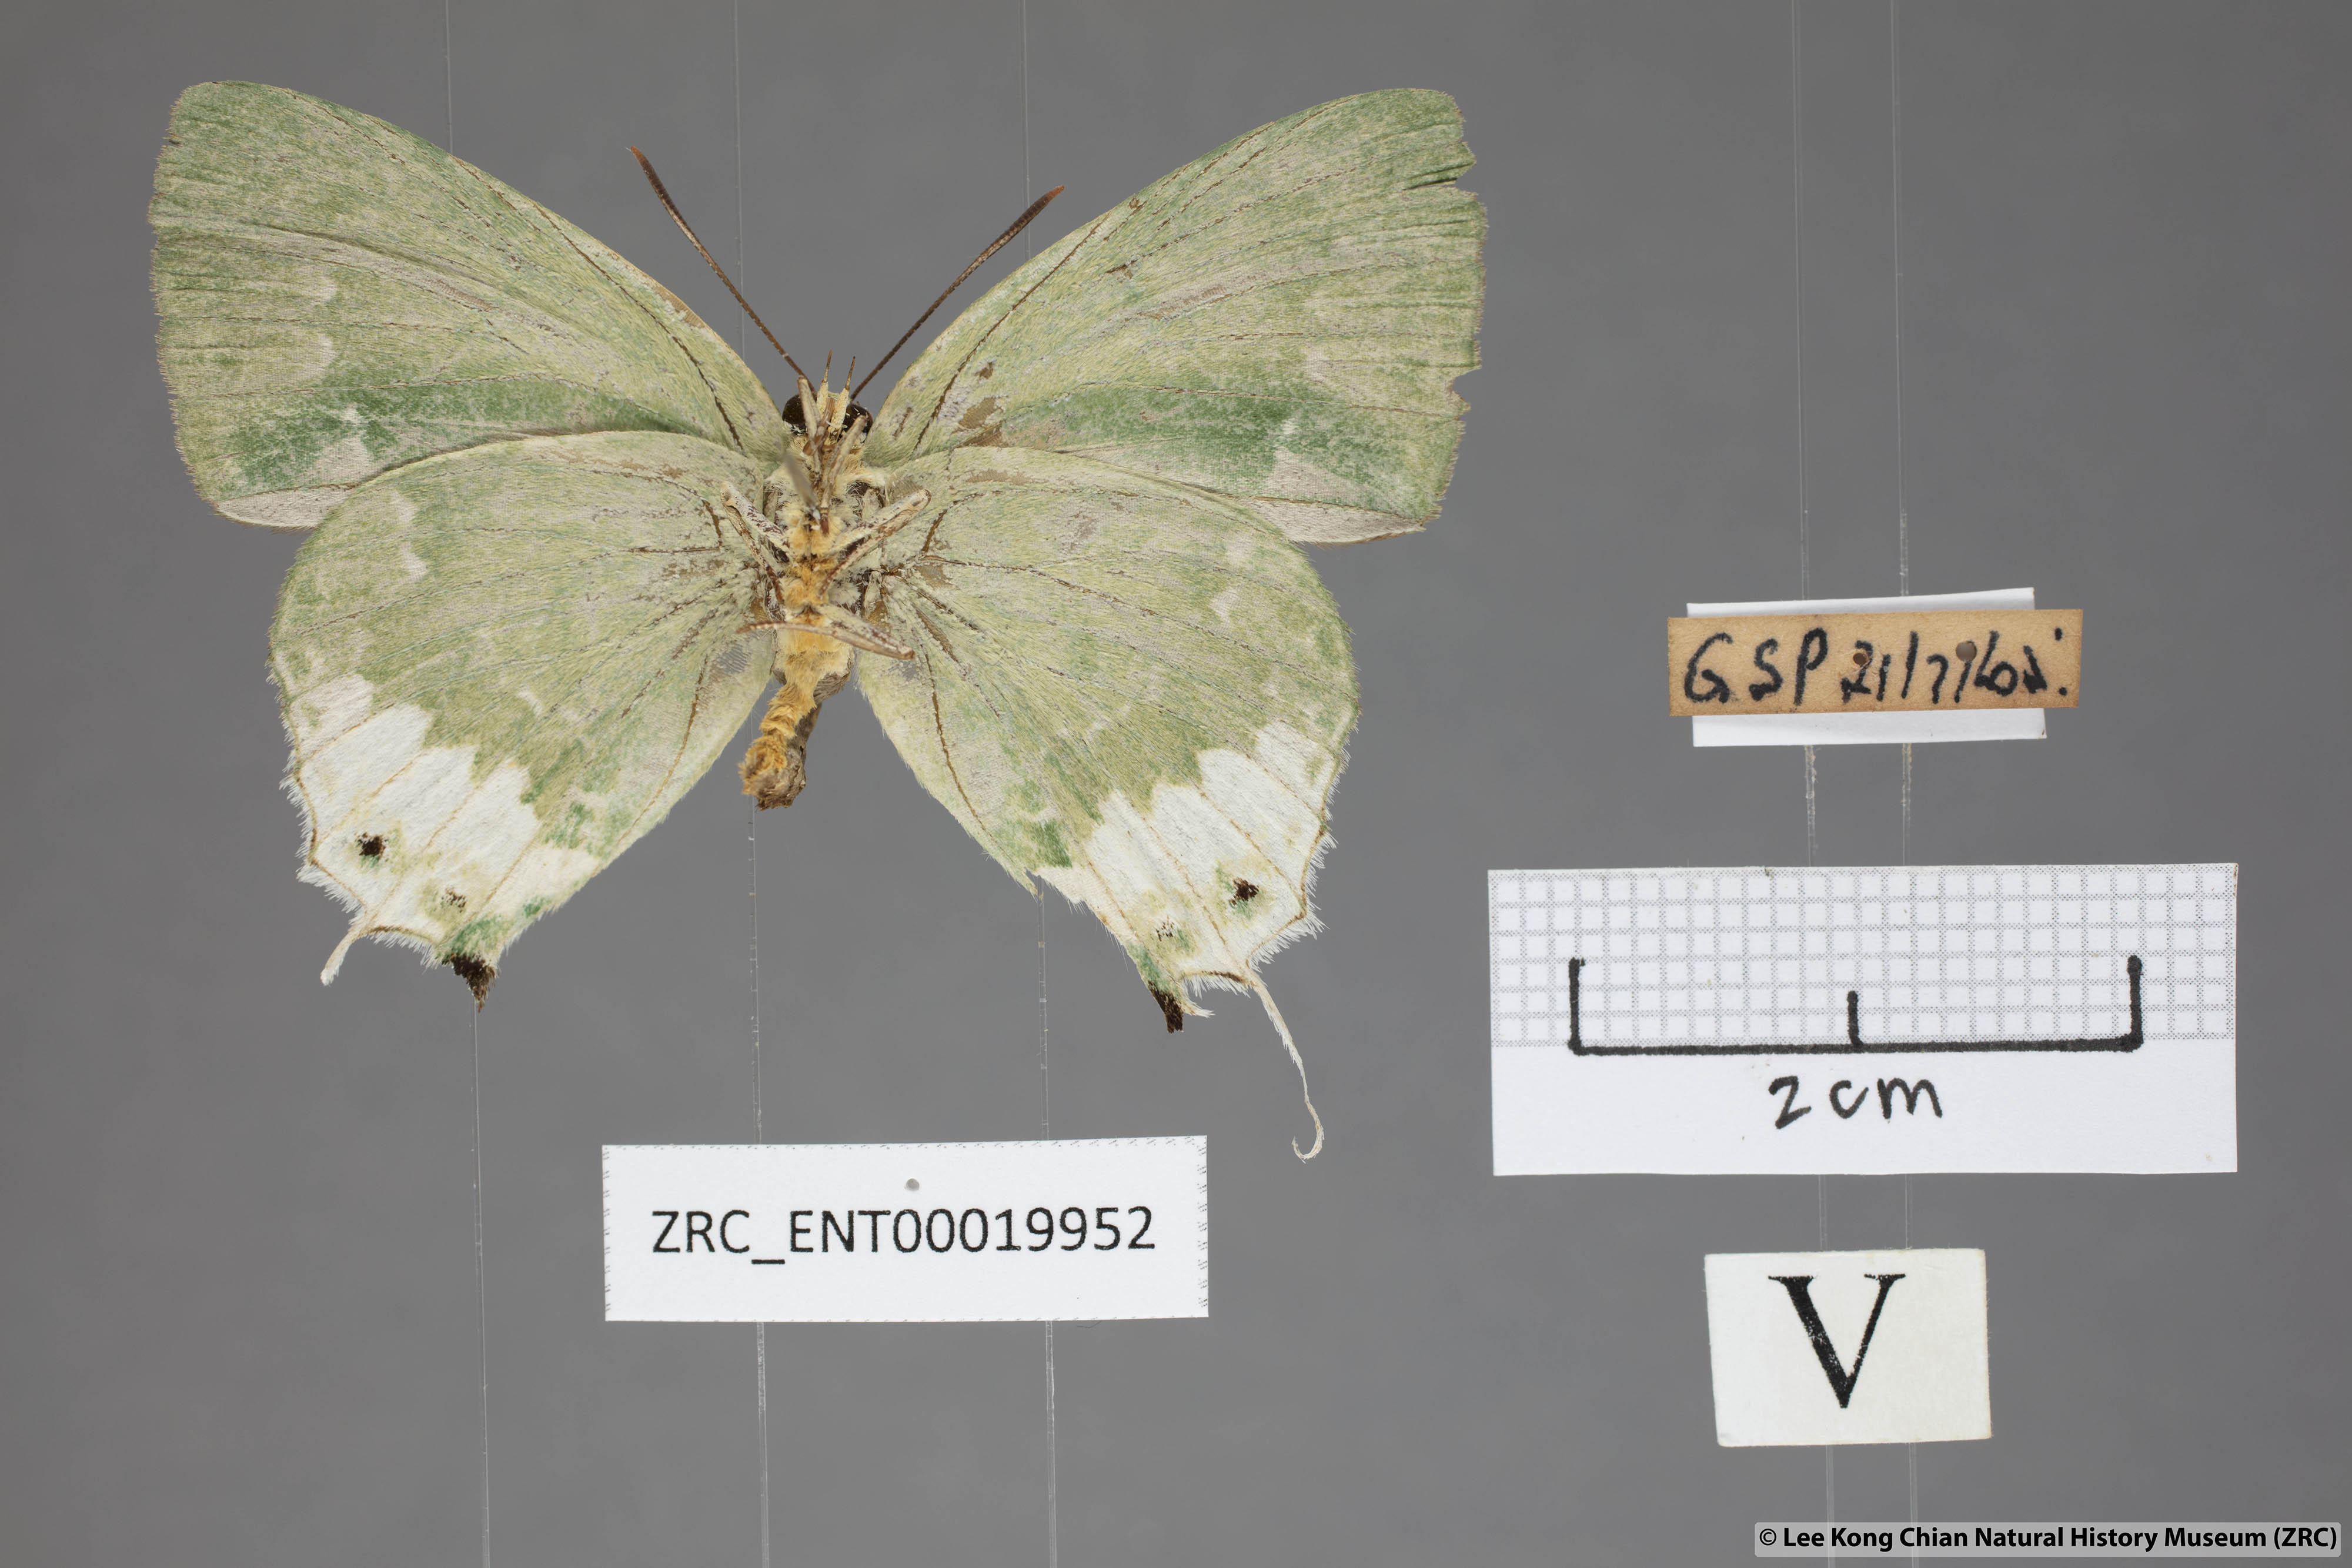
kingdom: Animalia
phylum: Arthropoda
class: Insecta
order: Lepidoptera
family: Lycaenidae
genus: Artipe
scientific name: Artipe eryx
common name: Green flash
